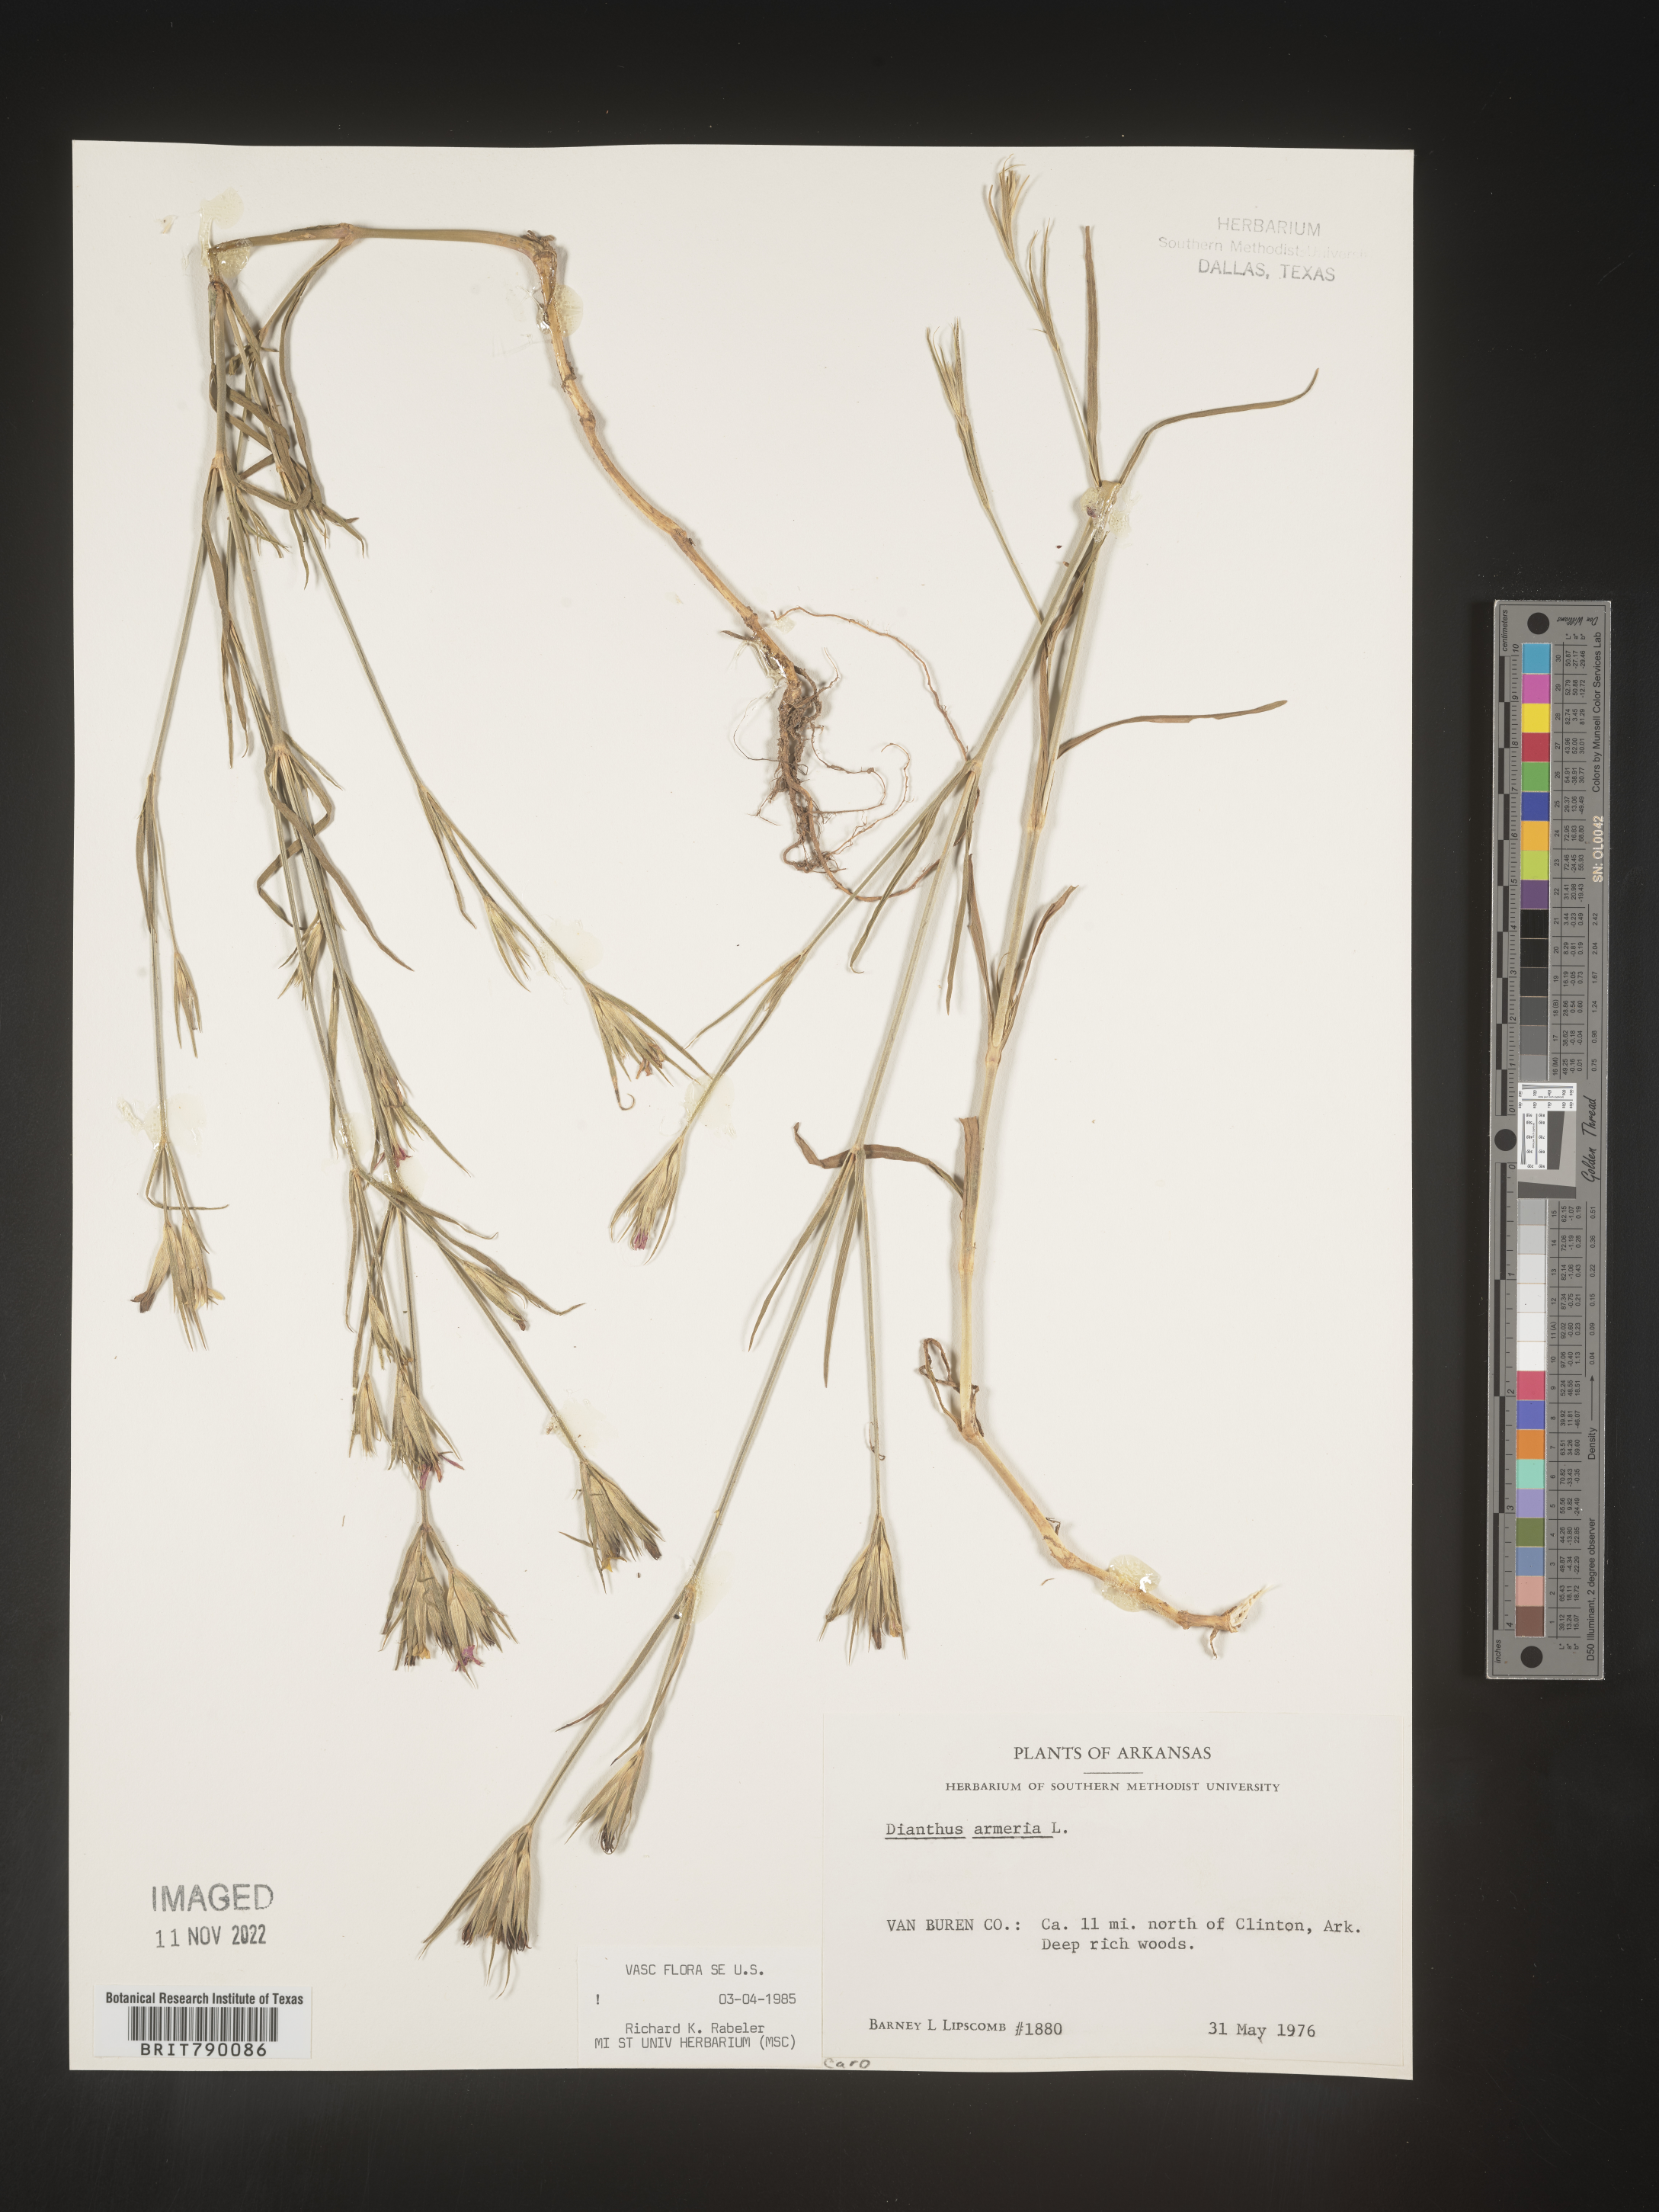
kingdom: Plantae
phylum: Tracheophyta
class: Magnoliopsida
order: Caryophyllales
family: Caryophyllaceae
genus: Dianthus
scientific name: Dianthus armeria
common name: Deptford pink
